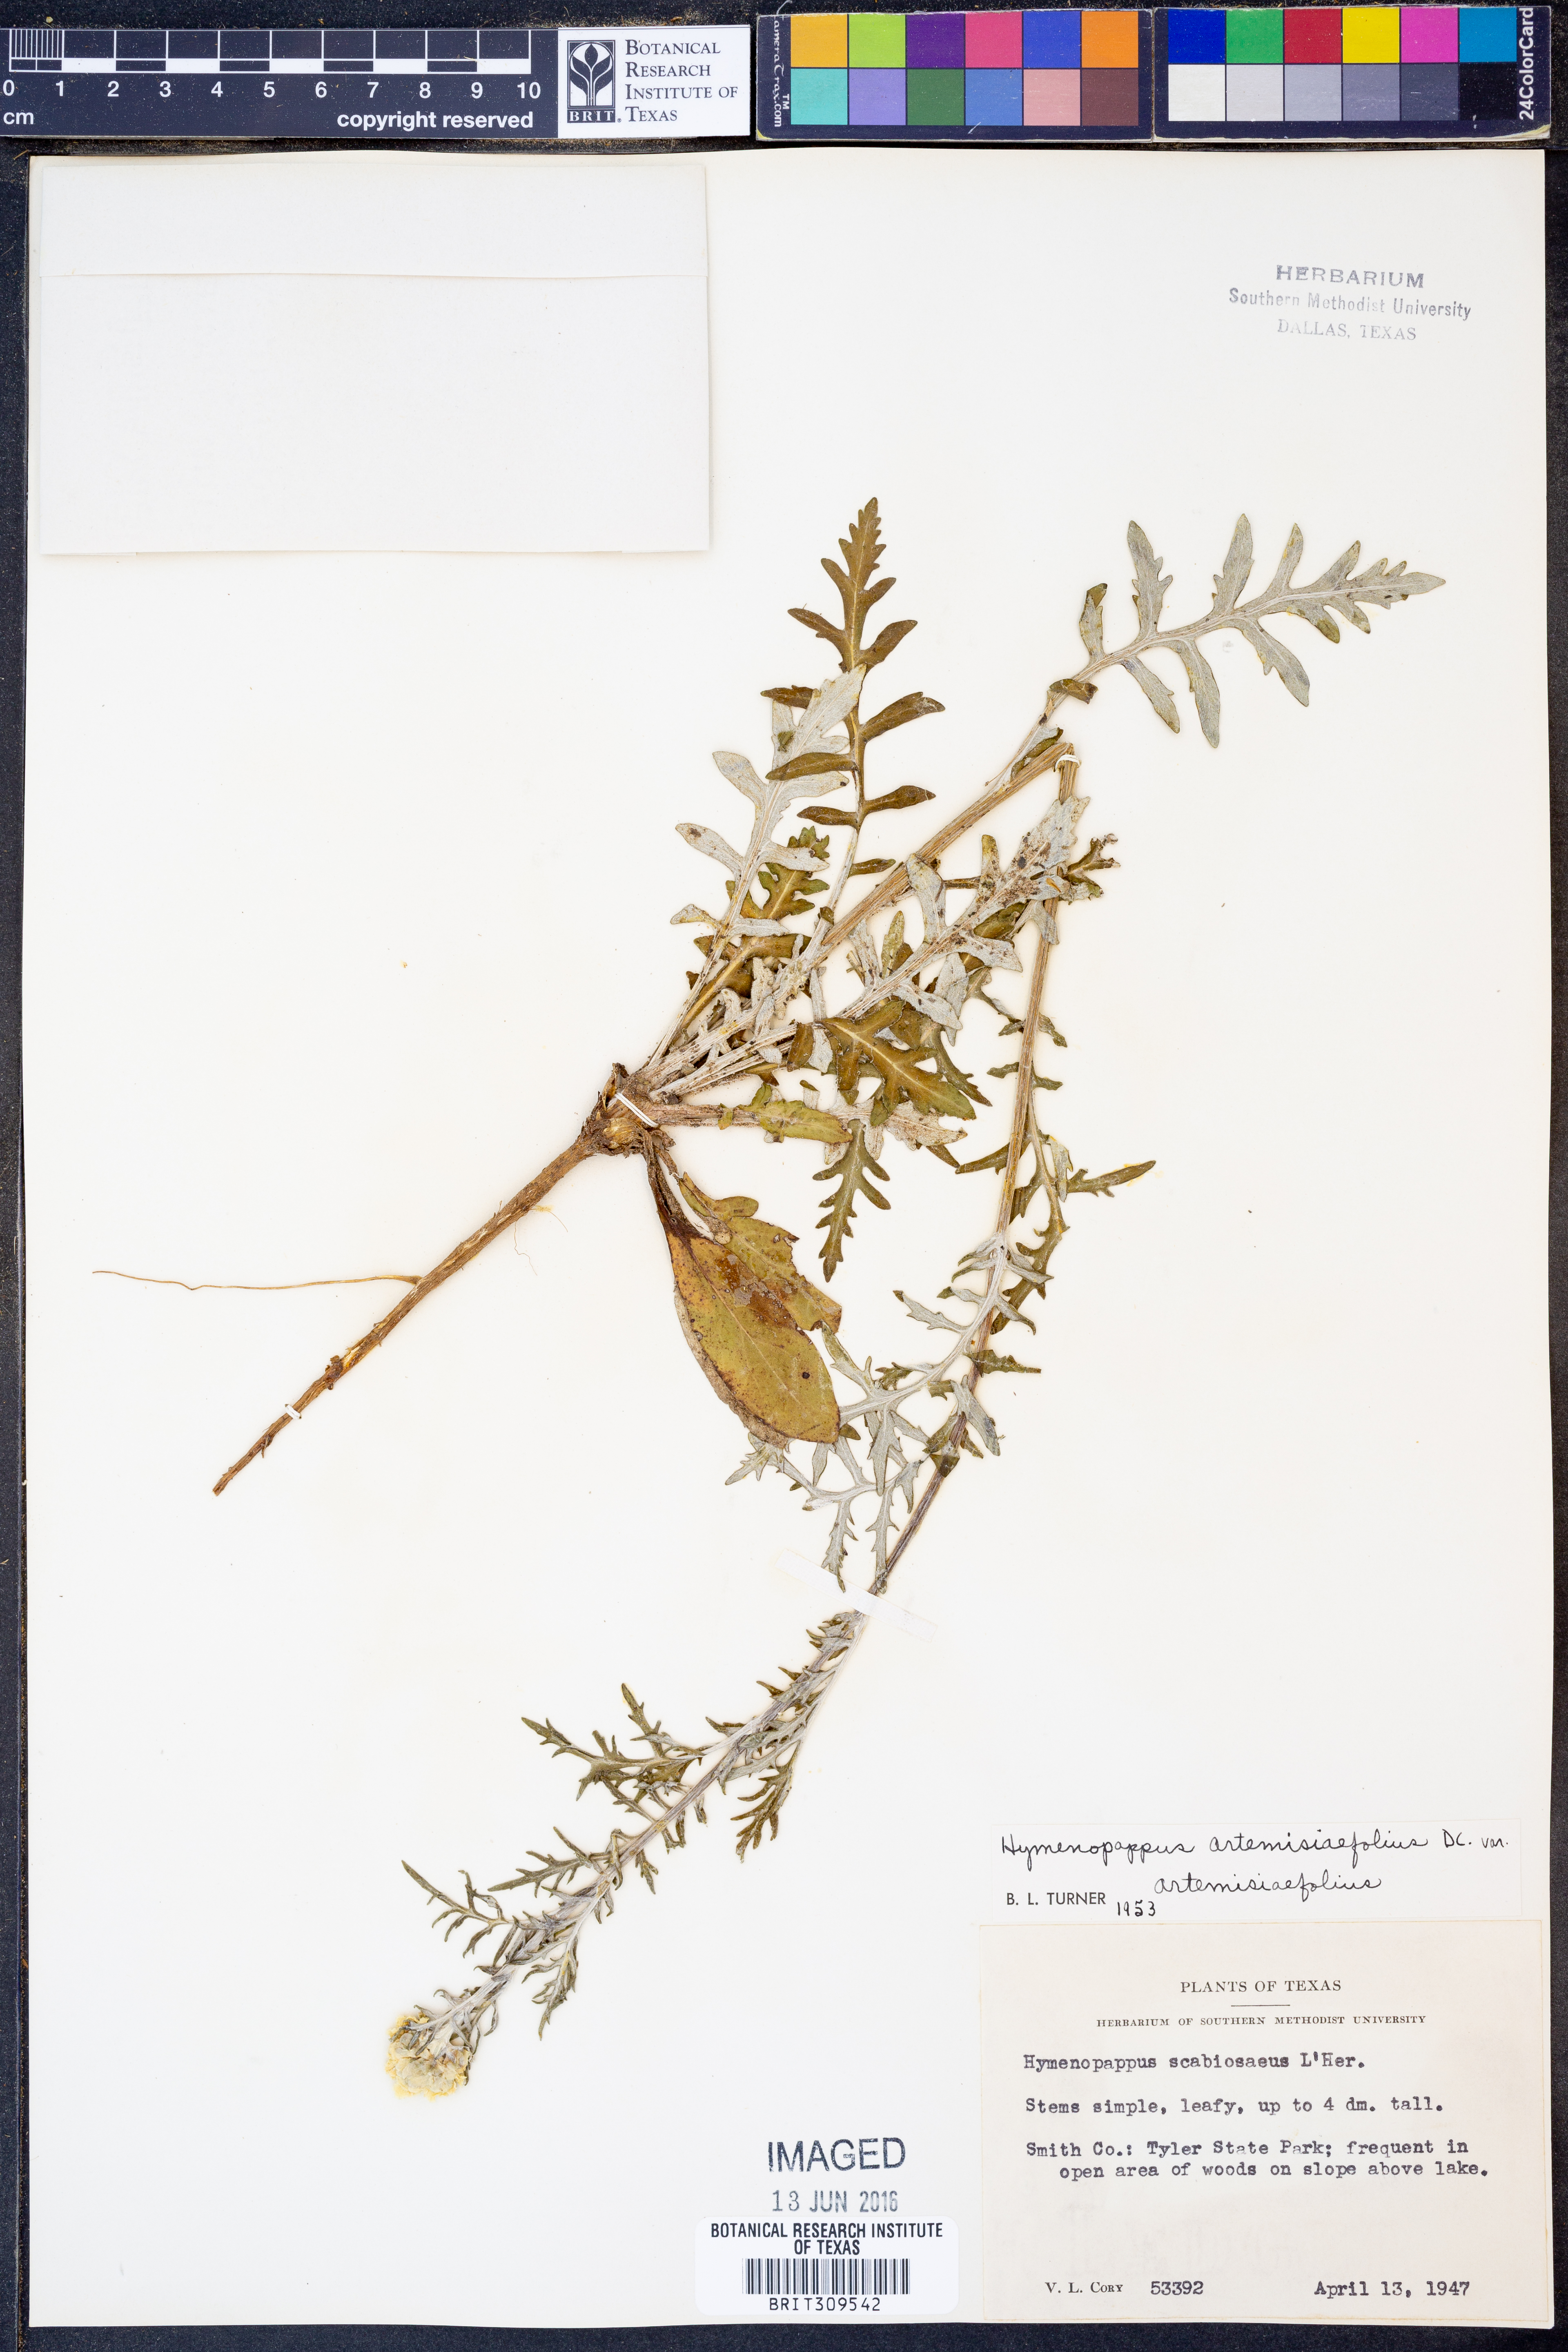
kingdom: Plantae
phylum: Tracheophyta
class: Magnoliopsida
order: Asterales
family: Asteraceae
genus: Hymenopappus
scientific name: Hymenopappus artemisiifolius
